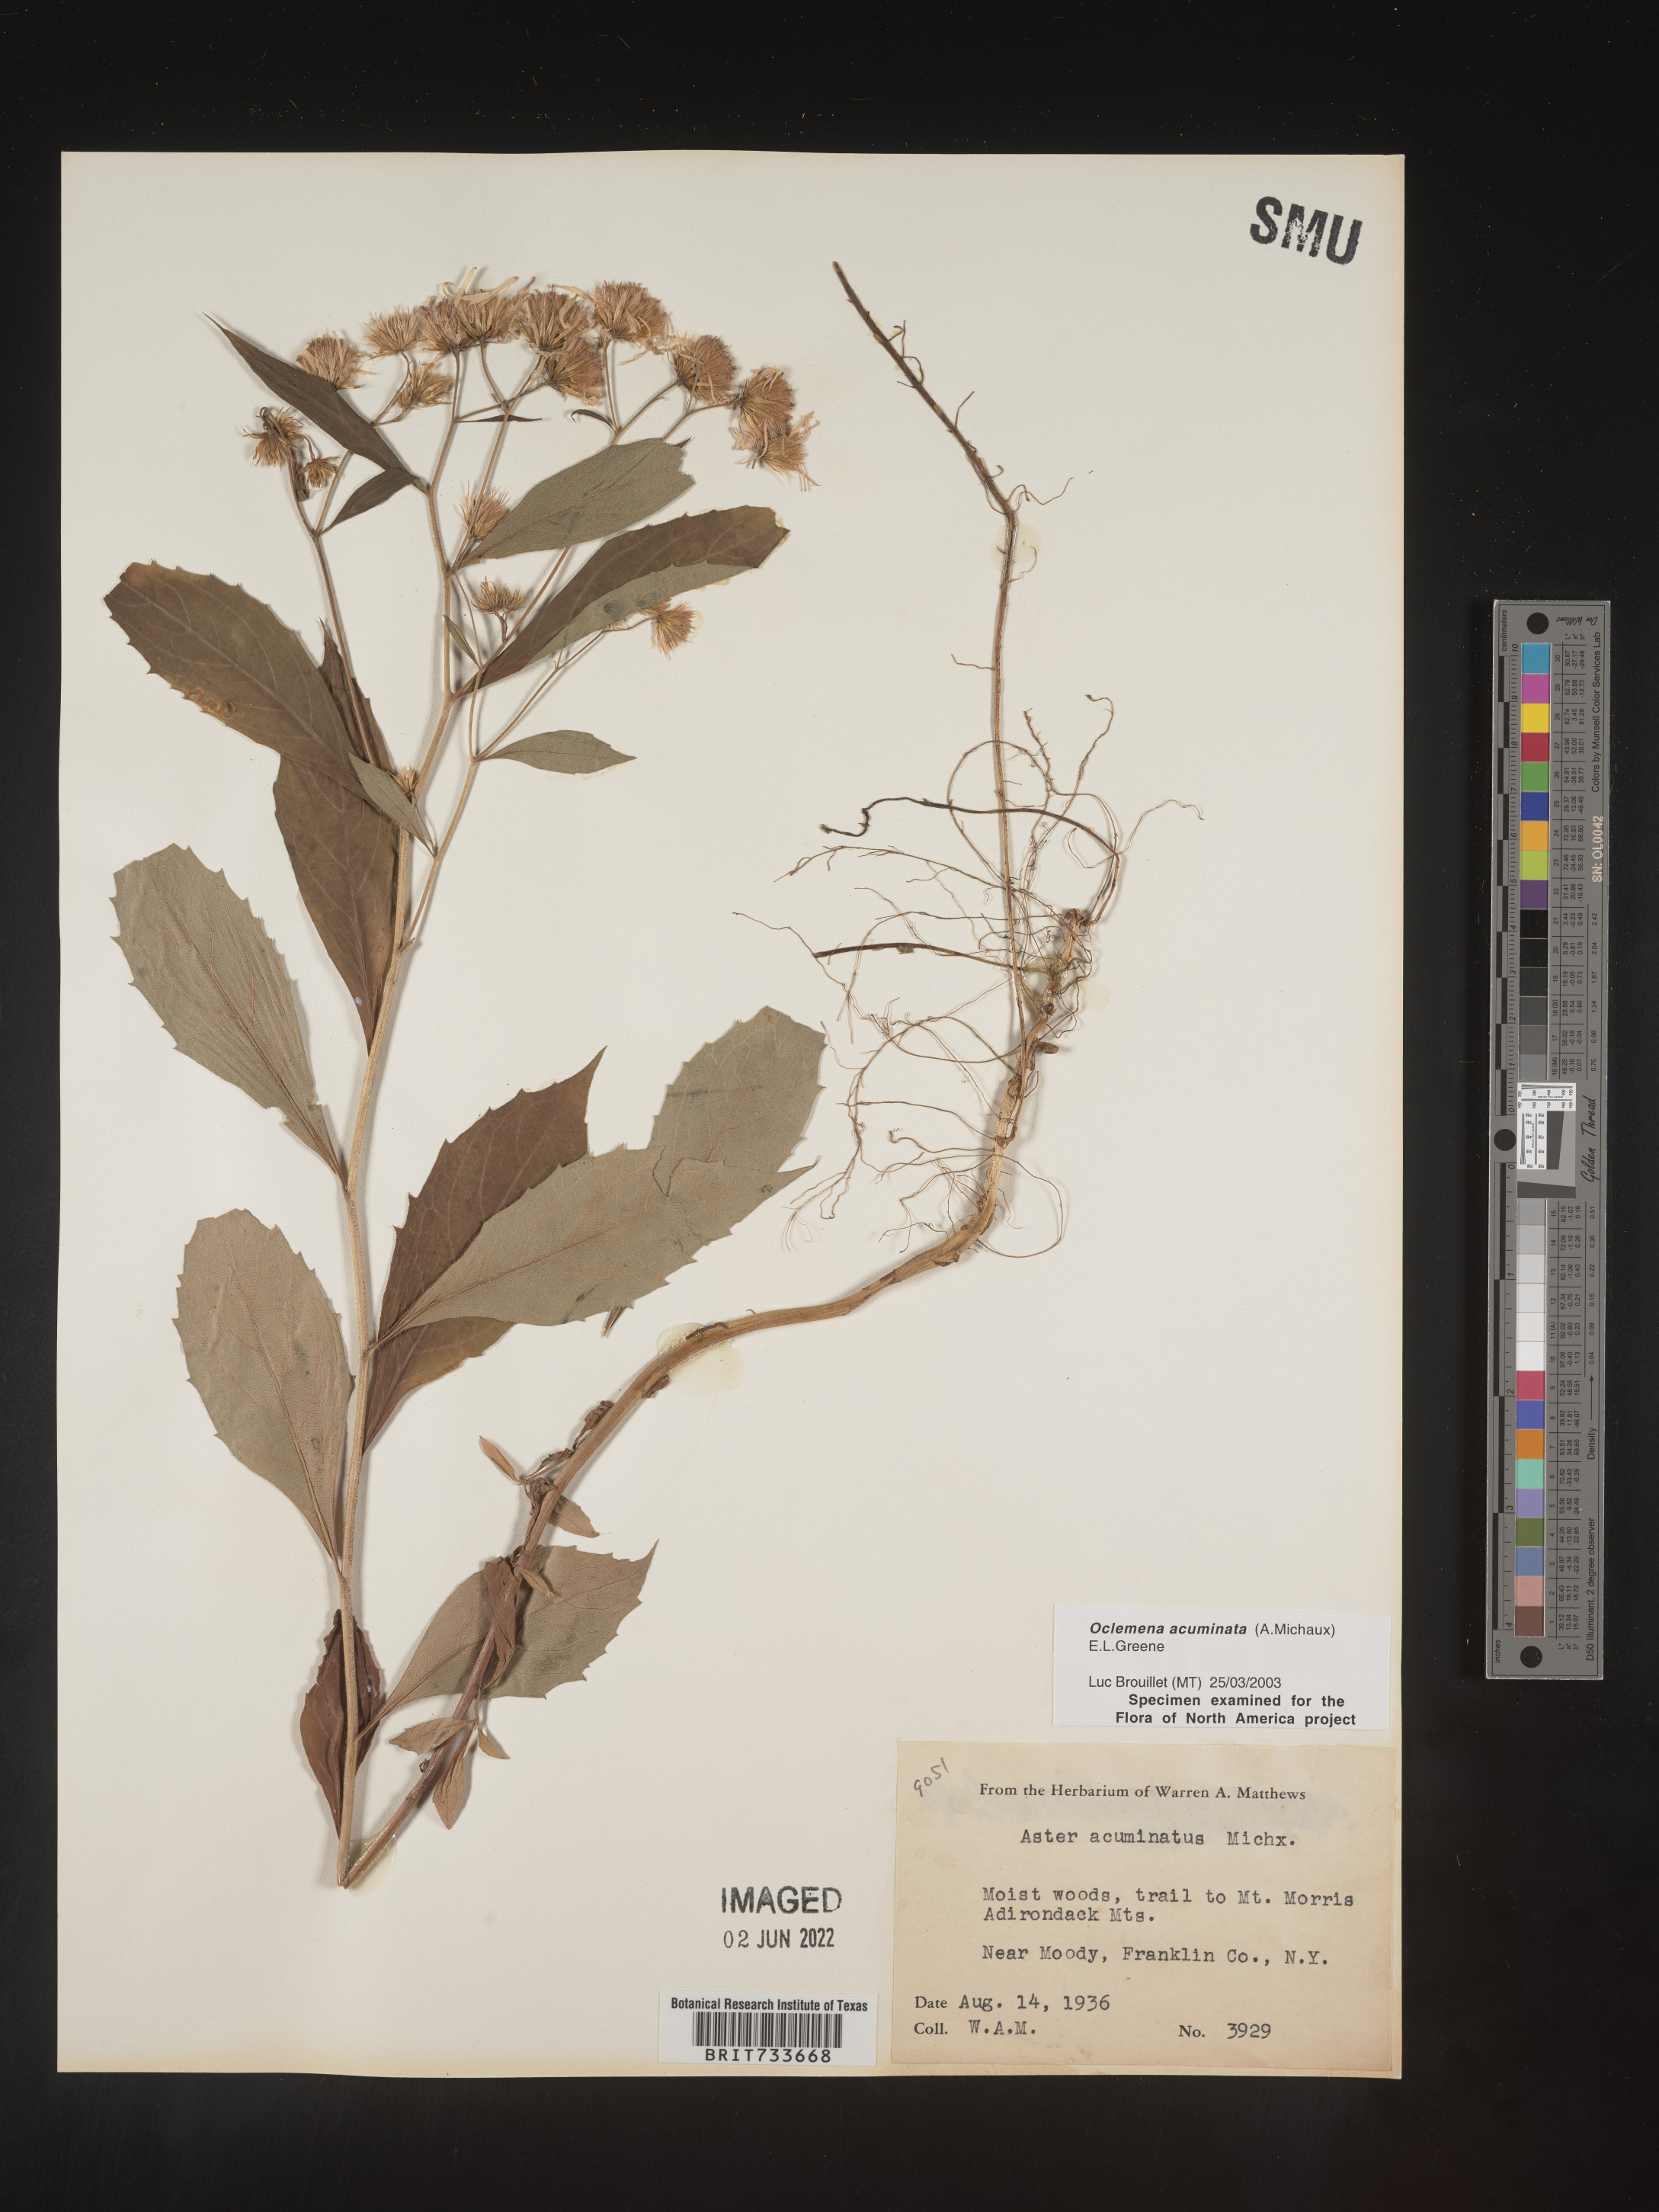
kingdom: Plantae
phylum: Tracheophyta
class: Magnoliopsida
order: Asterales
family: Asteraceae
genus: Oclemena
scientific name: Oclemena acuminata
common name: Mountain aster
